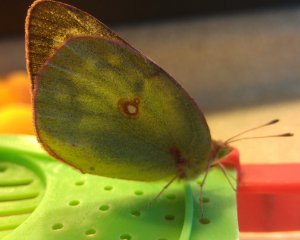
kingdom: Animalia
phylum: Arthropoda
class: Insecta
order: Lepidoptera
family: Pieridae
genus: Colias
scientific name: Colias philodice
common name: Clouded Sulphur
